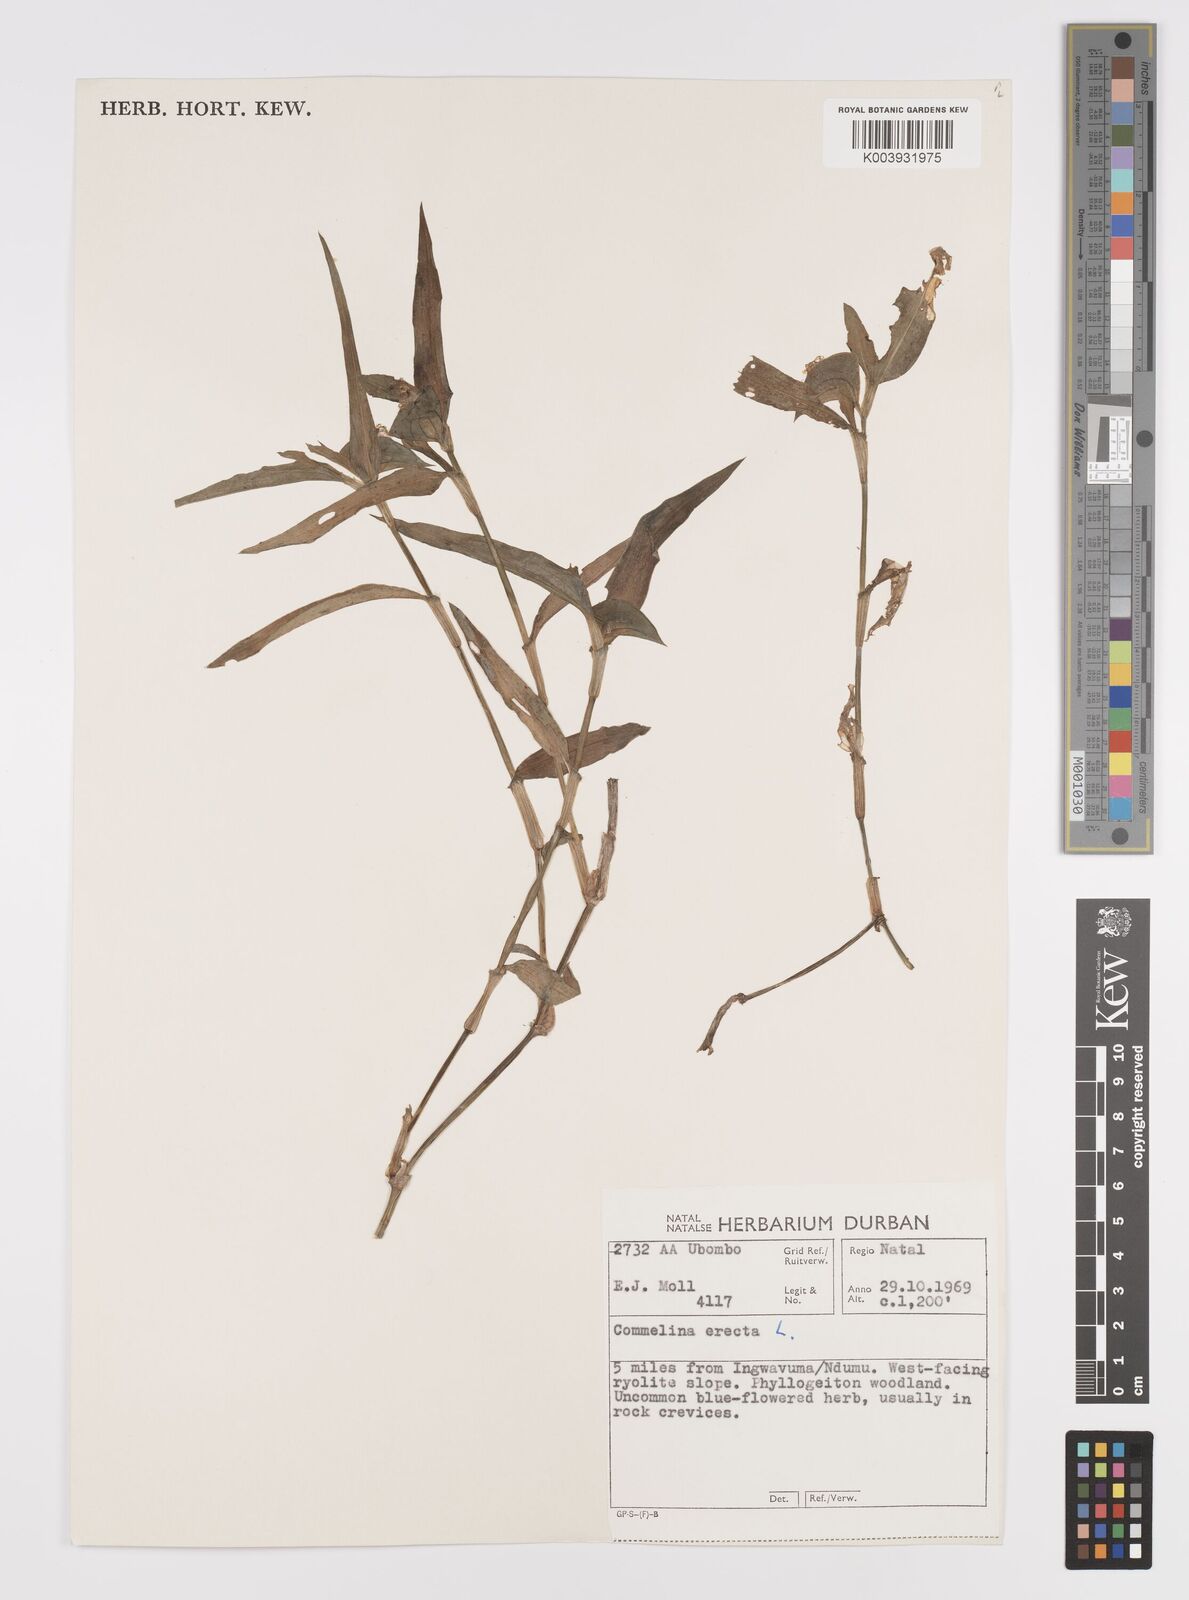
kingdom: Plantae
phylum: Tracheophyta
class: Liliopsida
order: Commelinales
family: Commelinaceae
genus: Commelina
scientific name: Commelina erecta
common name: Blousel blommetjie
